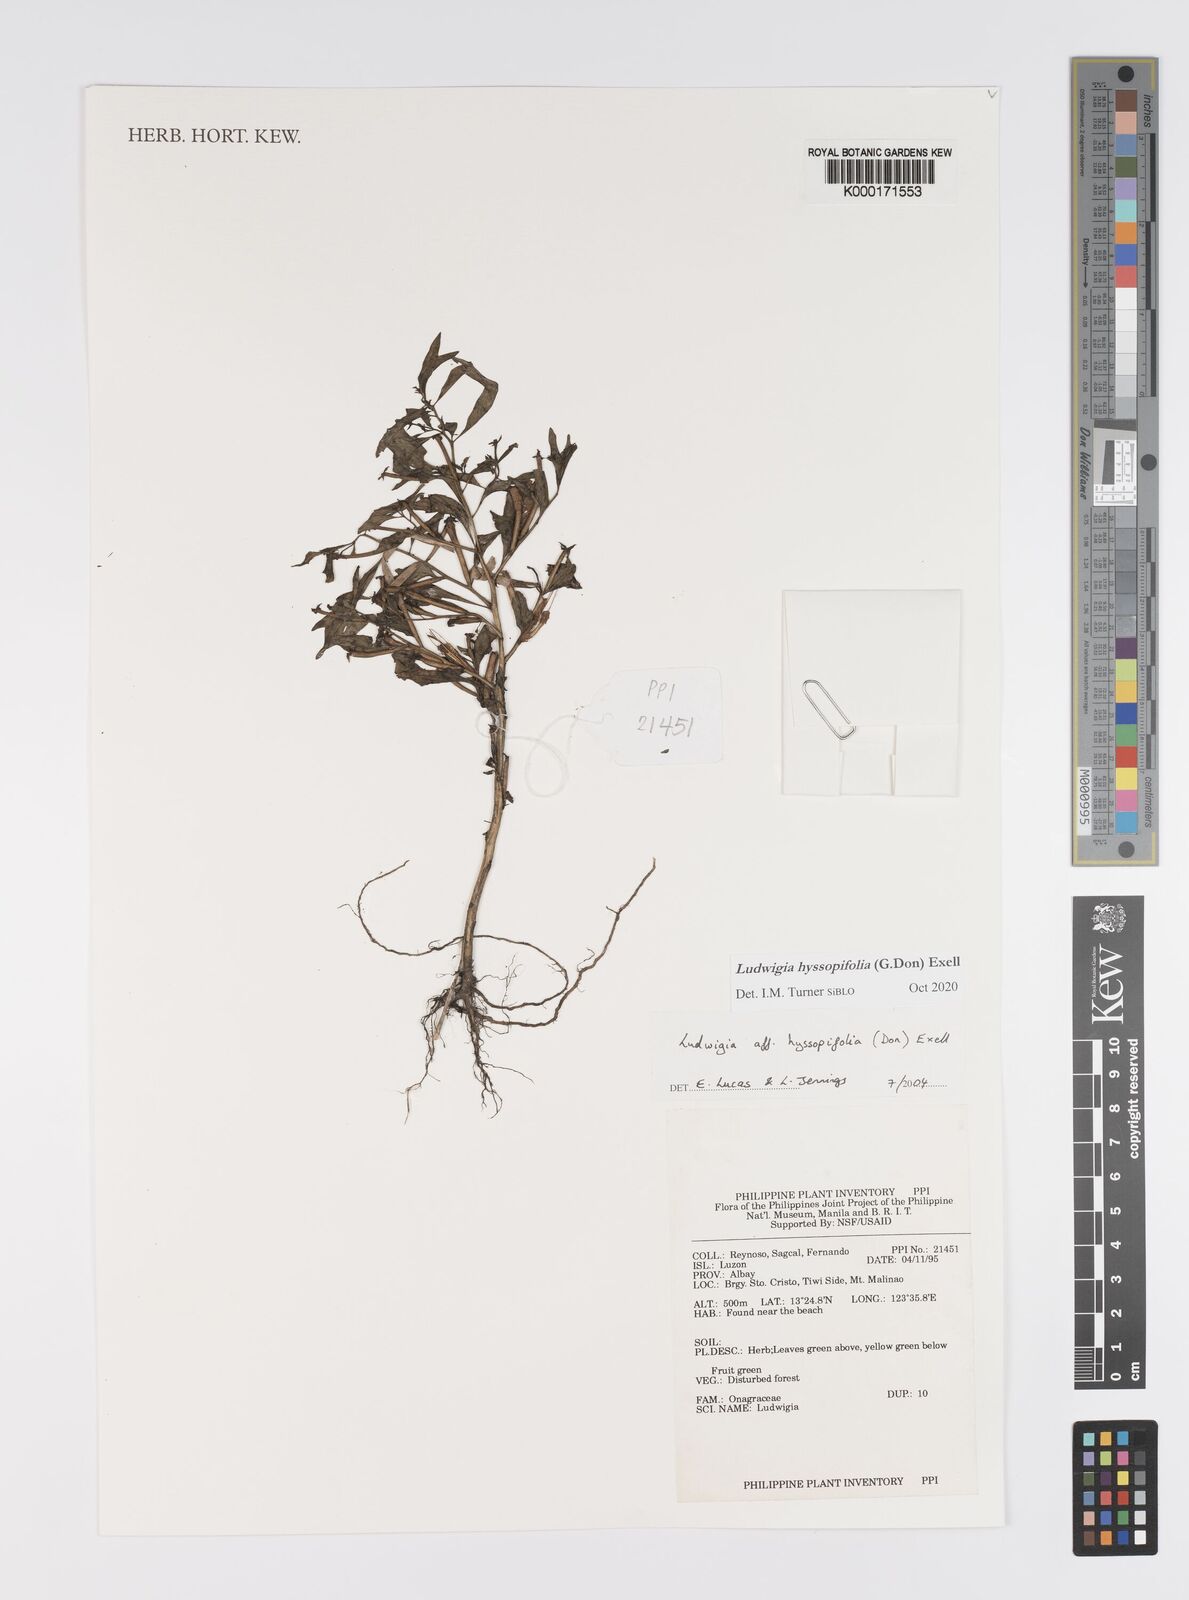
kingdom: Plantae
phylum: Tracheophyta
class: Magnoliopsida
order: Myrtales
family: Onagraceae
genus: Ludwigia
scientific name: Ludwigia hyssopifolia
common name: Linear leaf water primrose
